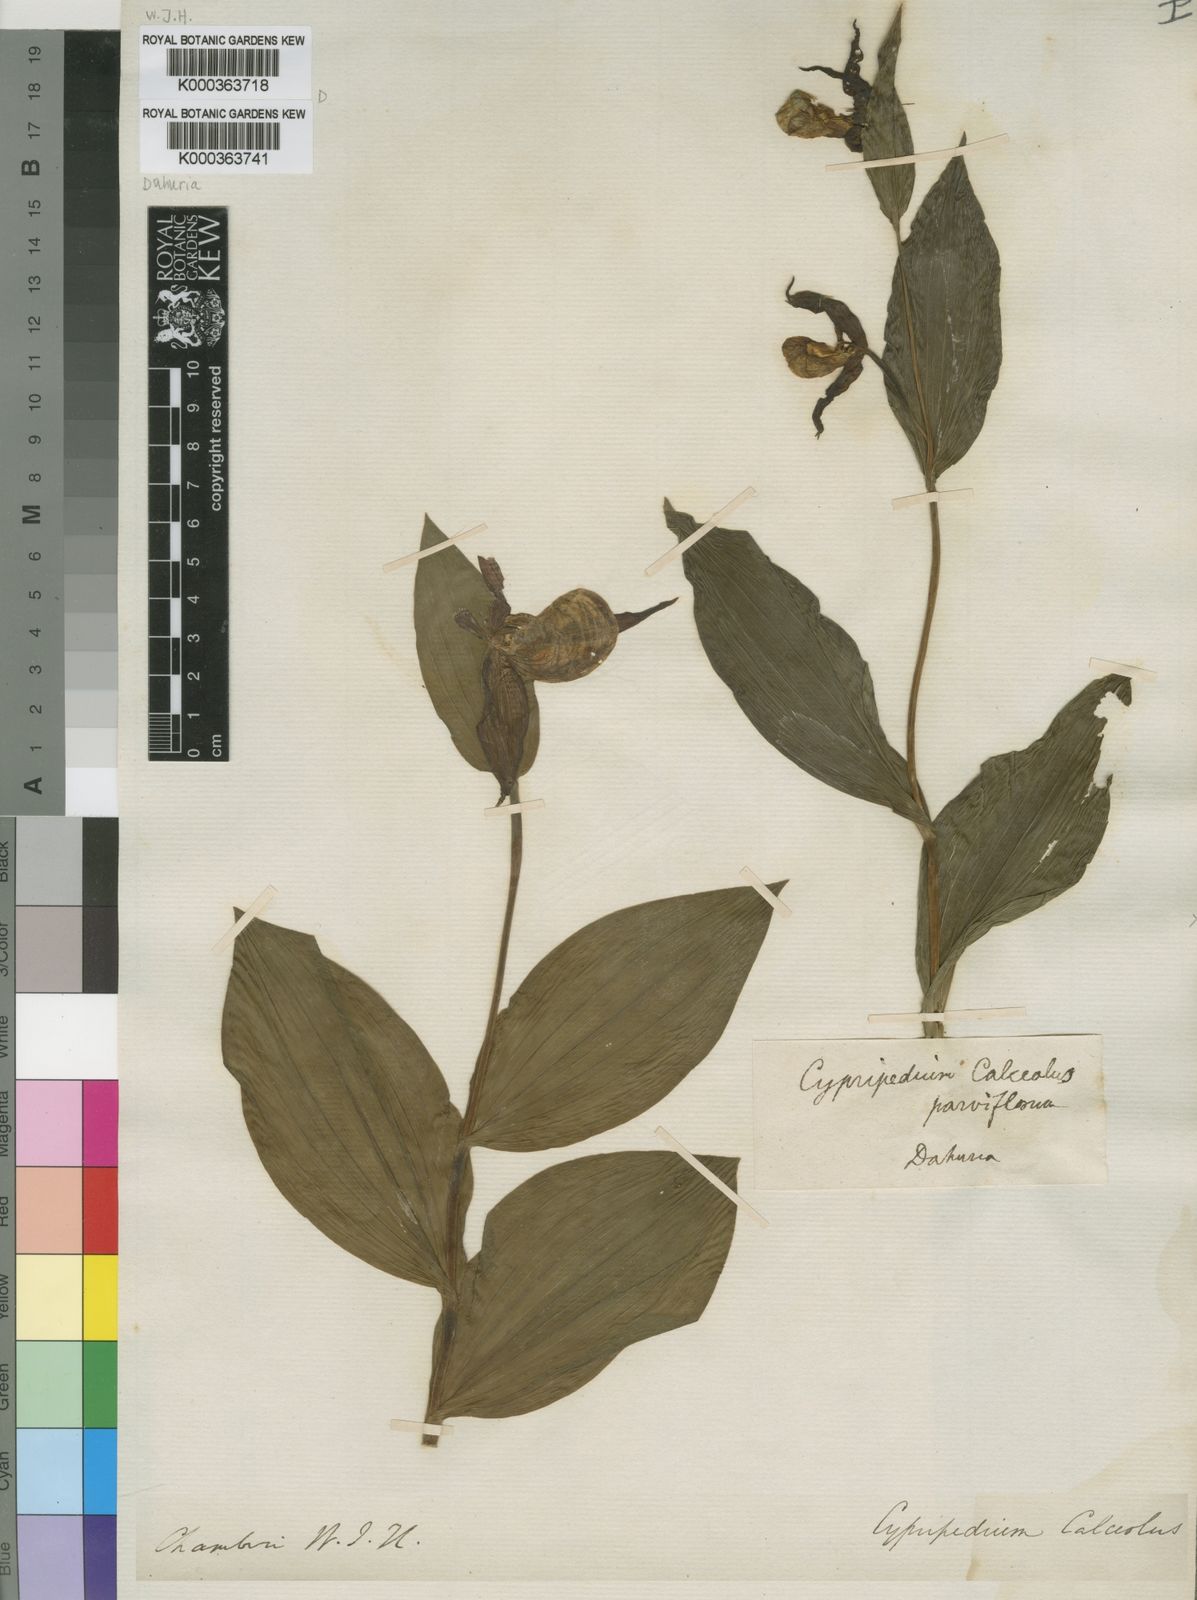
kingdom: Plantae
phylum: Tracheophyta
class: Liliopsida
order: Asparagales
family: Orchidaceae
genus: Cypripedium
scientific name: Cypripedium calceolus
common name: Lady's-slipper
